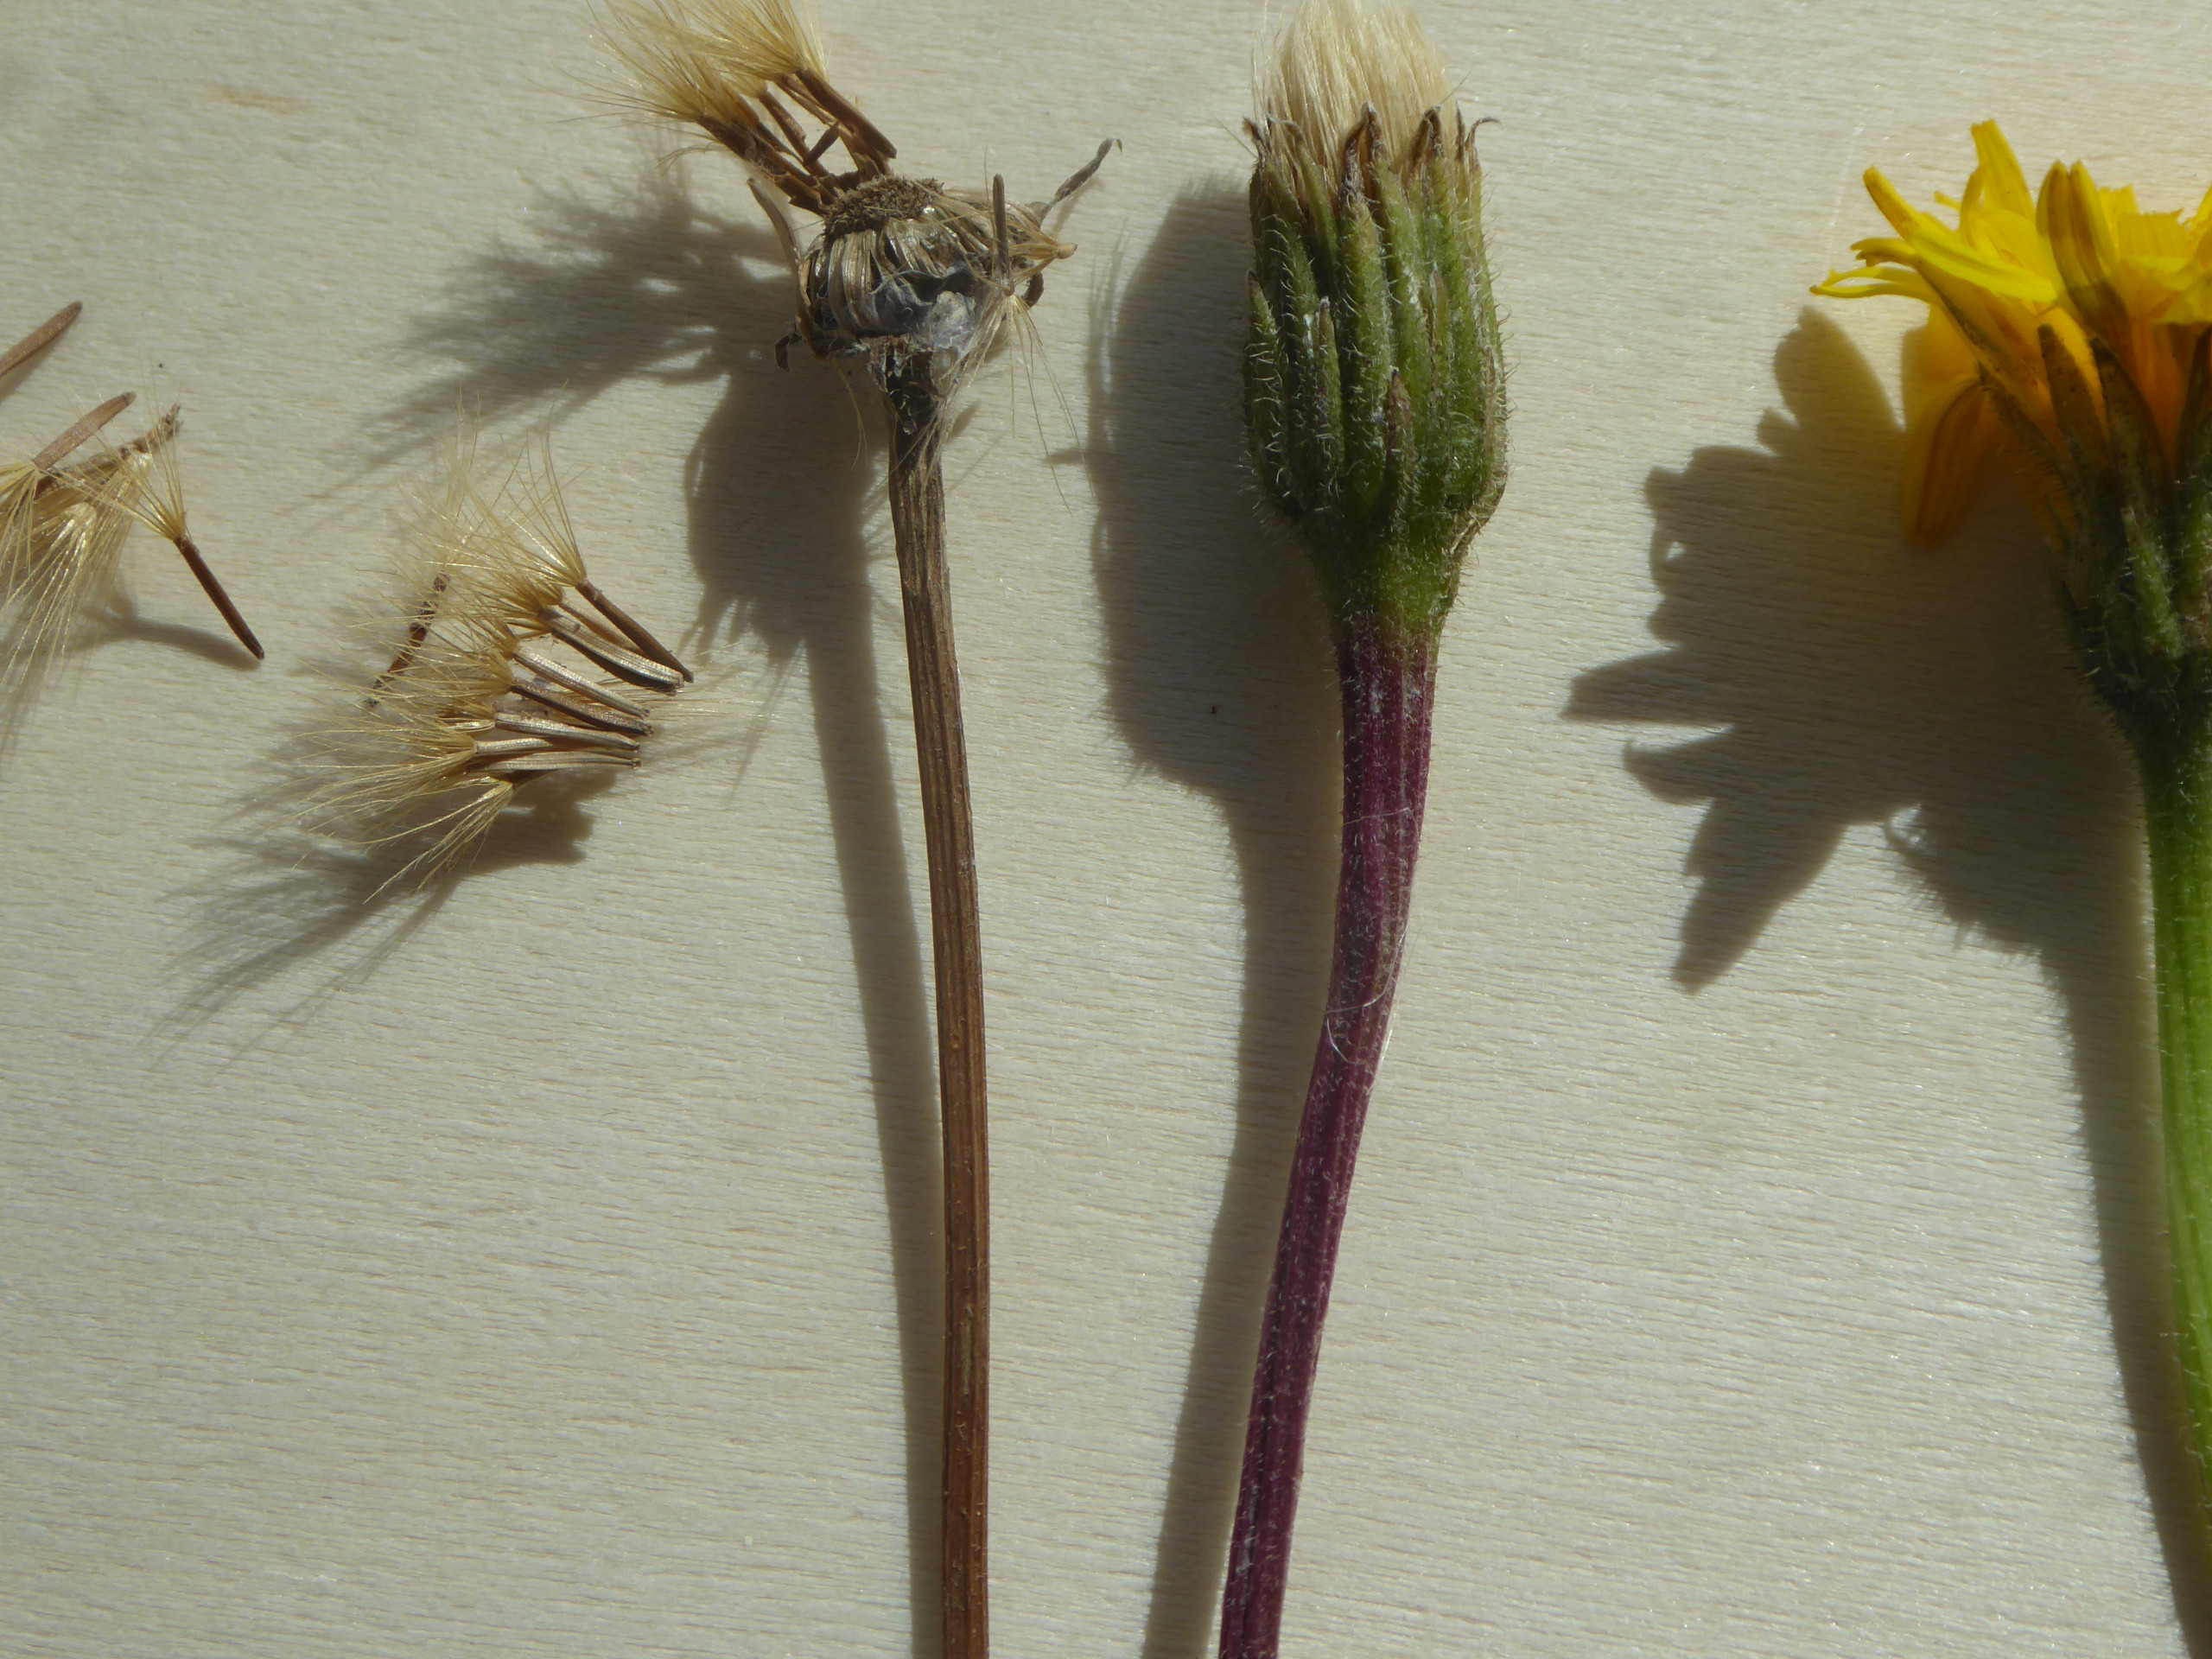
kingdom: Plantae
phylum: Tracheophyta
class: Magnoliopsida
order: Asterales
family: Asteraceae
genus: Leontodon
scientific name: Leontodon hispidus
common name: Stivhåret borst
